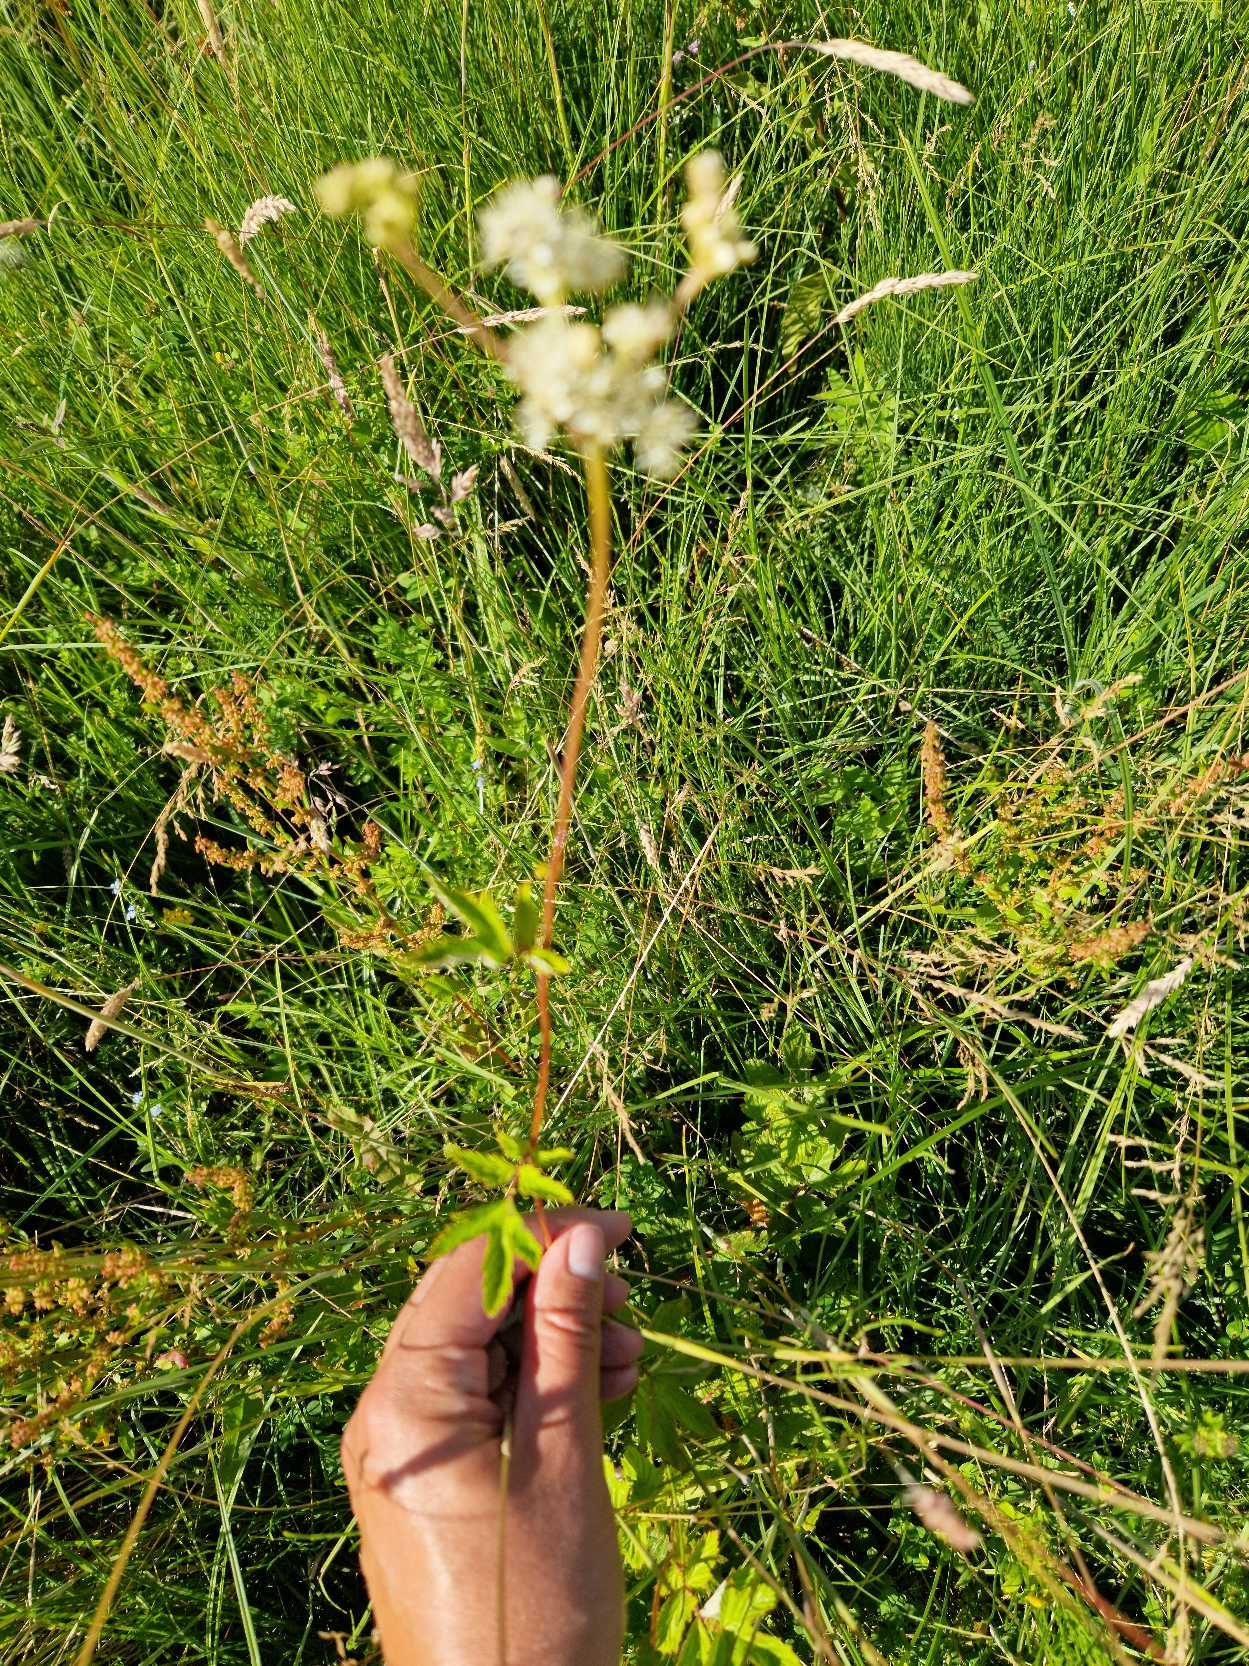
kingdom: Plantae
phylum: Tracheophyta
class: Magnoliopsida
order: Rosales
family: Rosaceae
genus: Filipendula
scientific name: Filipendula ulmaria
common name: Almindelig mjødurt
